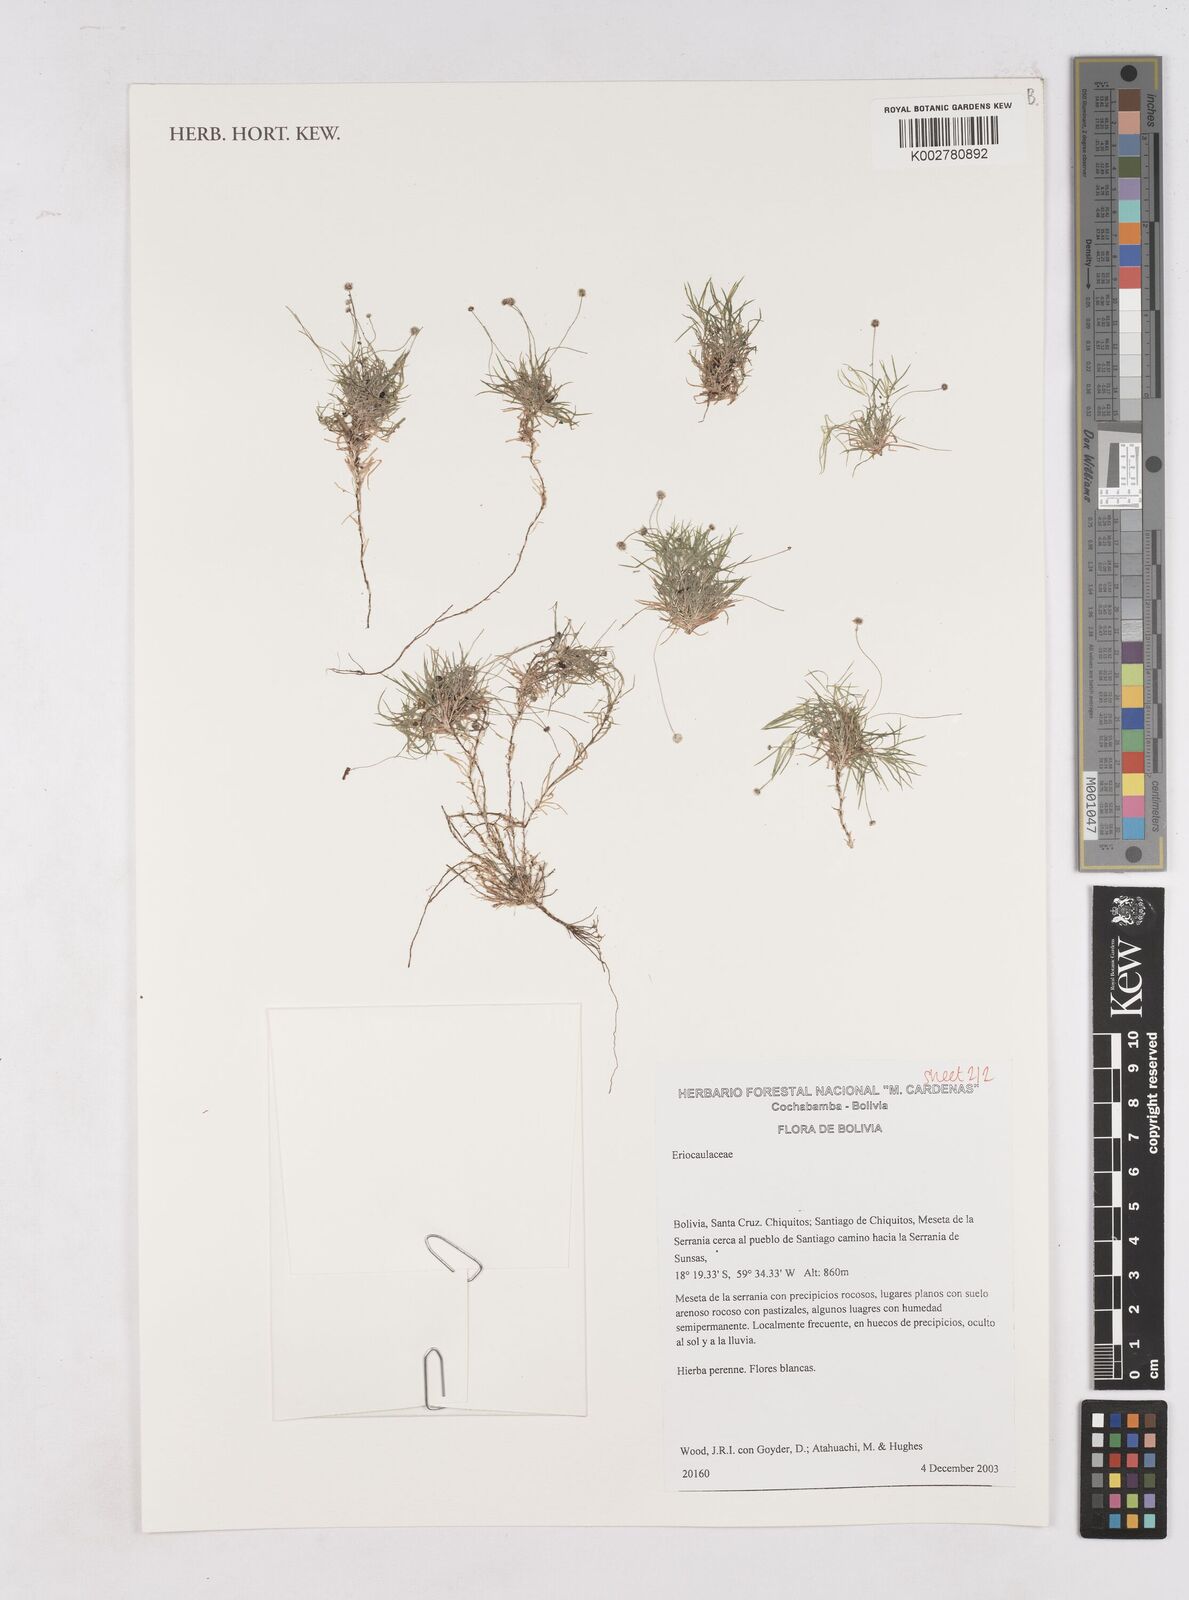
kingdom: Plantae
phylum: Tracheophyta
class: Liliopsida
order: Poales
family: Eriocaulaceae
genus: Paepalanthus
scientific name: Paepalanthus
